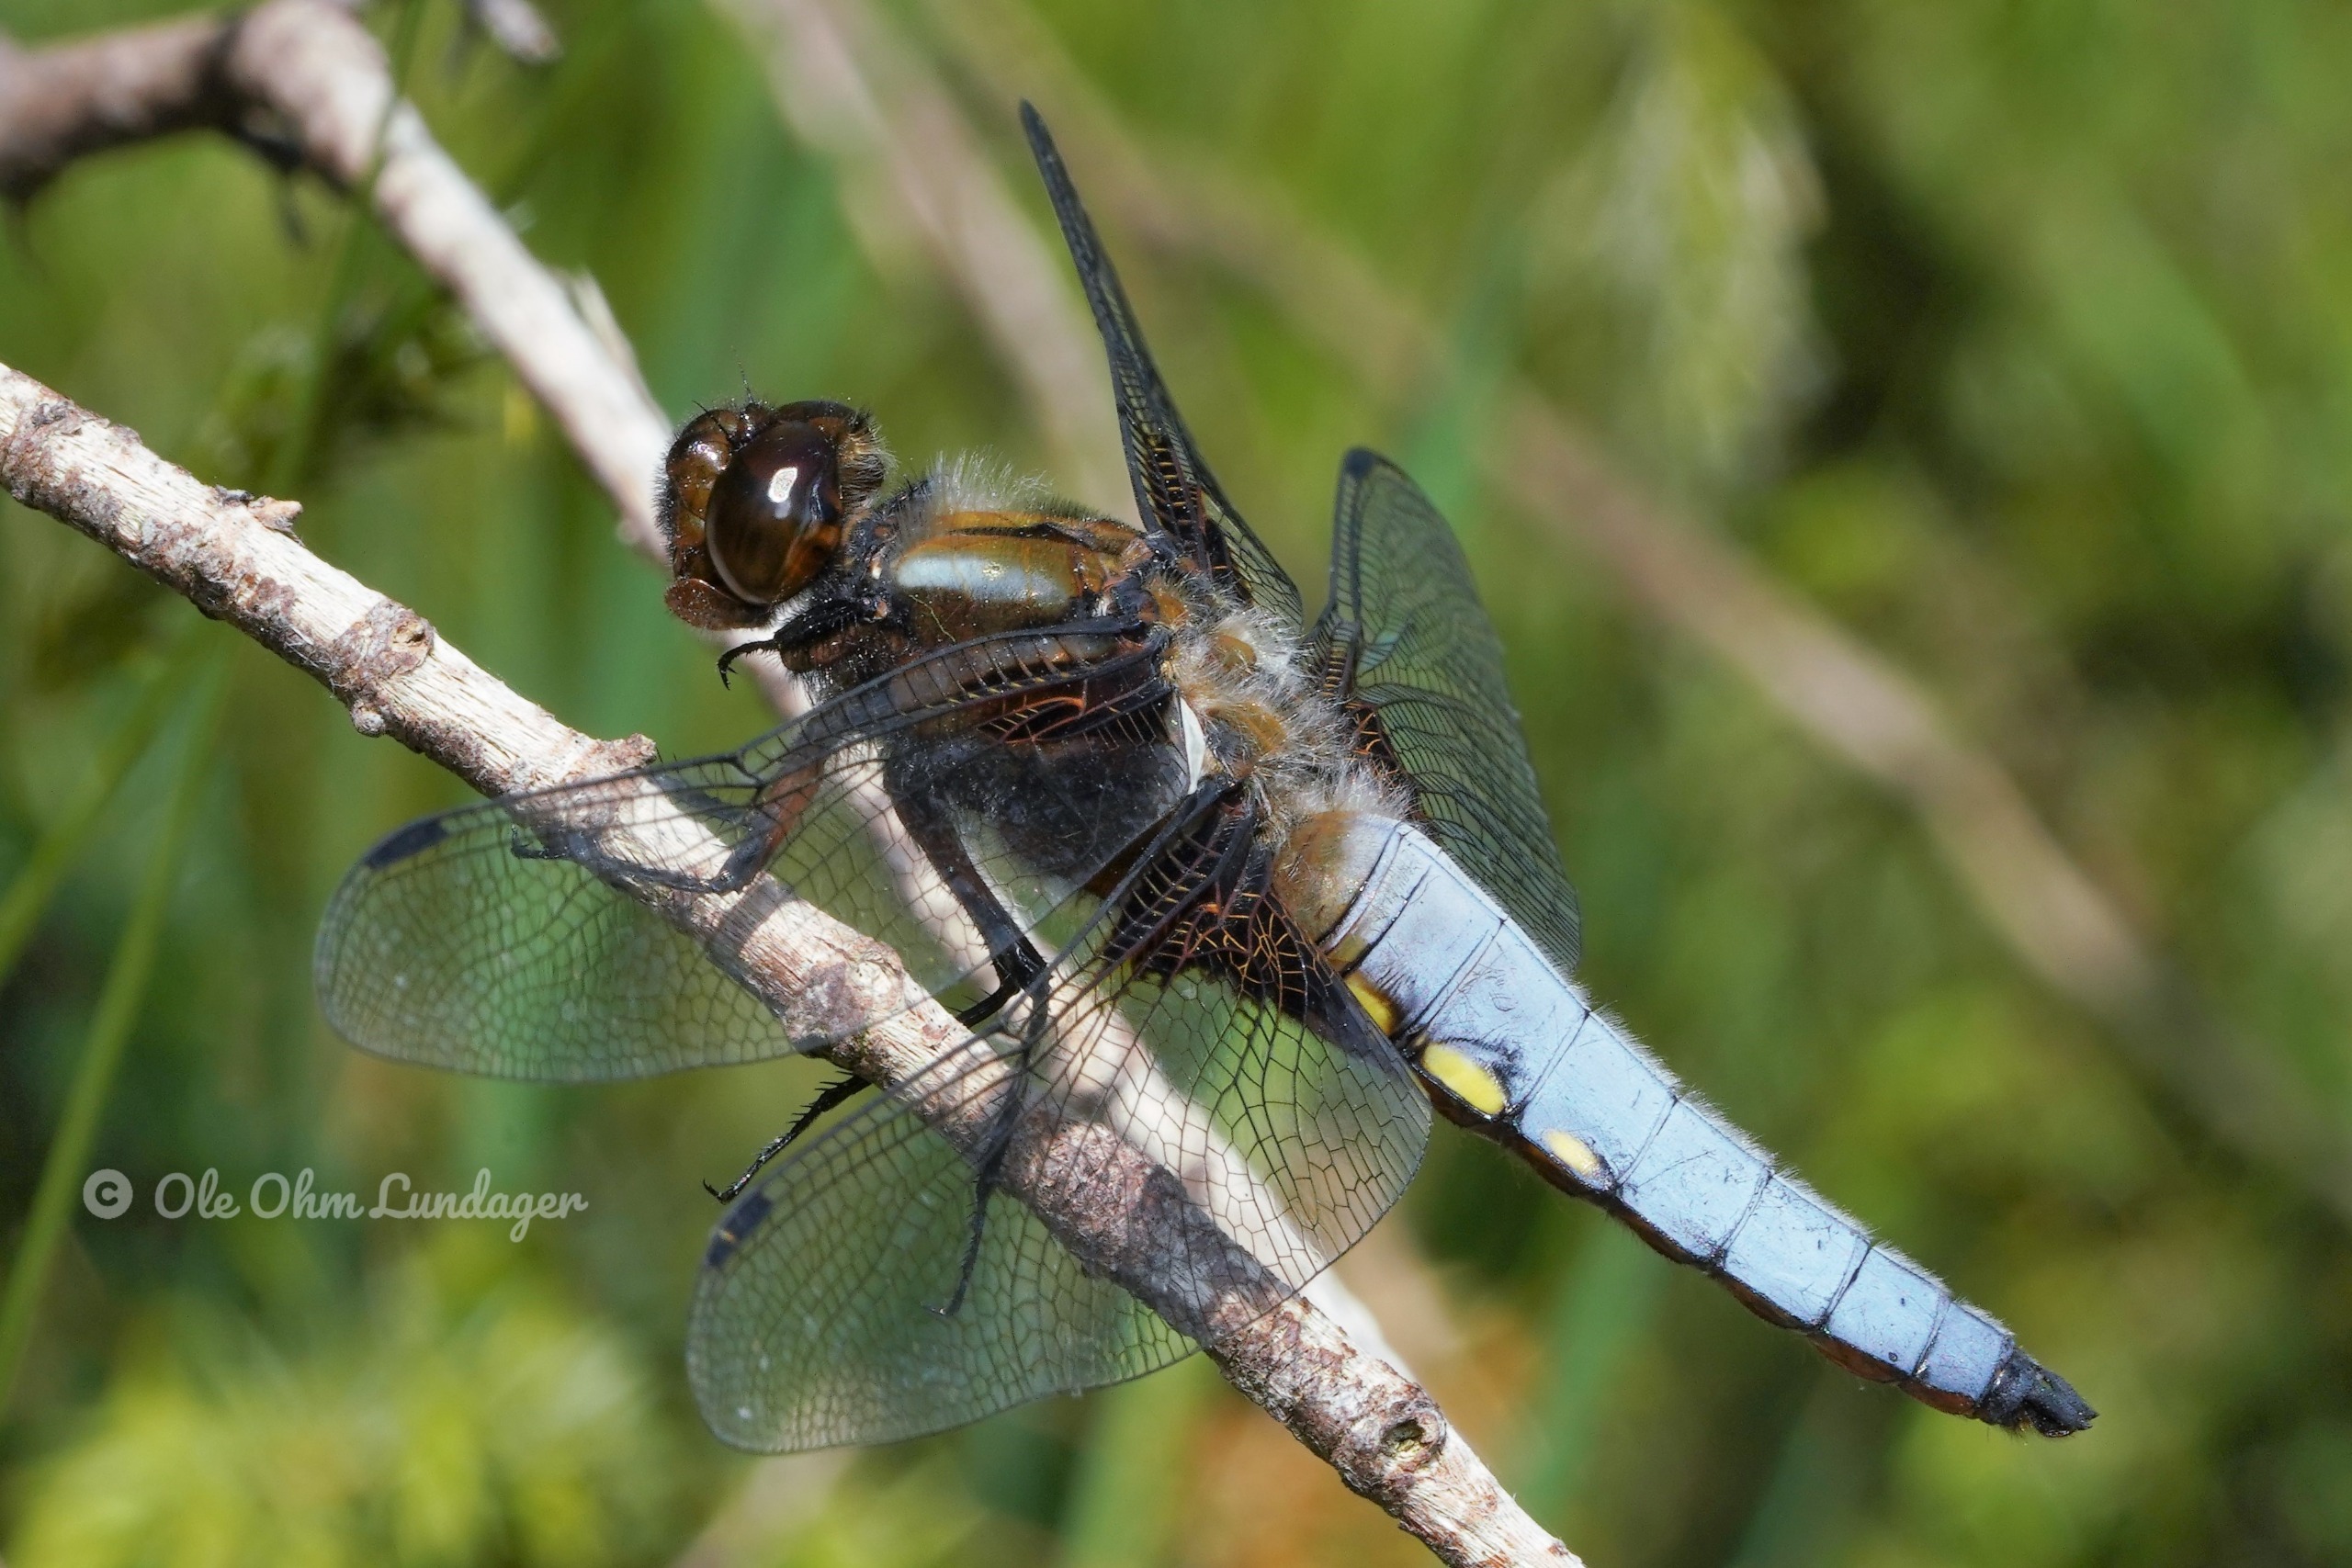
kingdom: Animalia
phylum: Arthropoda
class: Insecta
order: Odonata
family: Libellulidae
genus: Libellula
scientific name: Libellula depressa
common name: Blå libel
